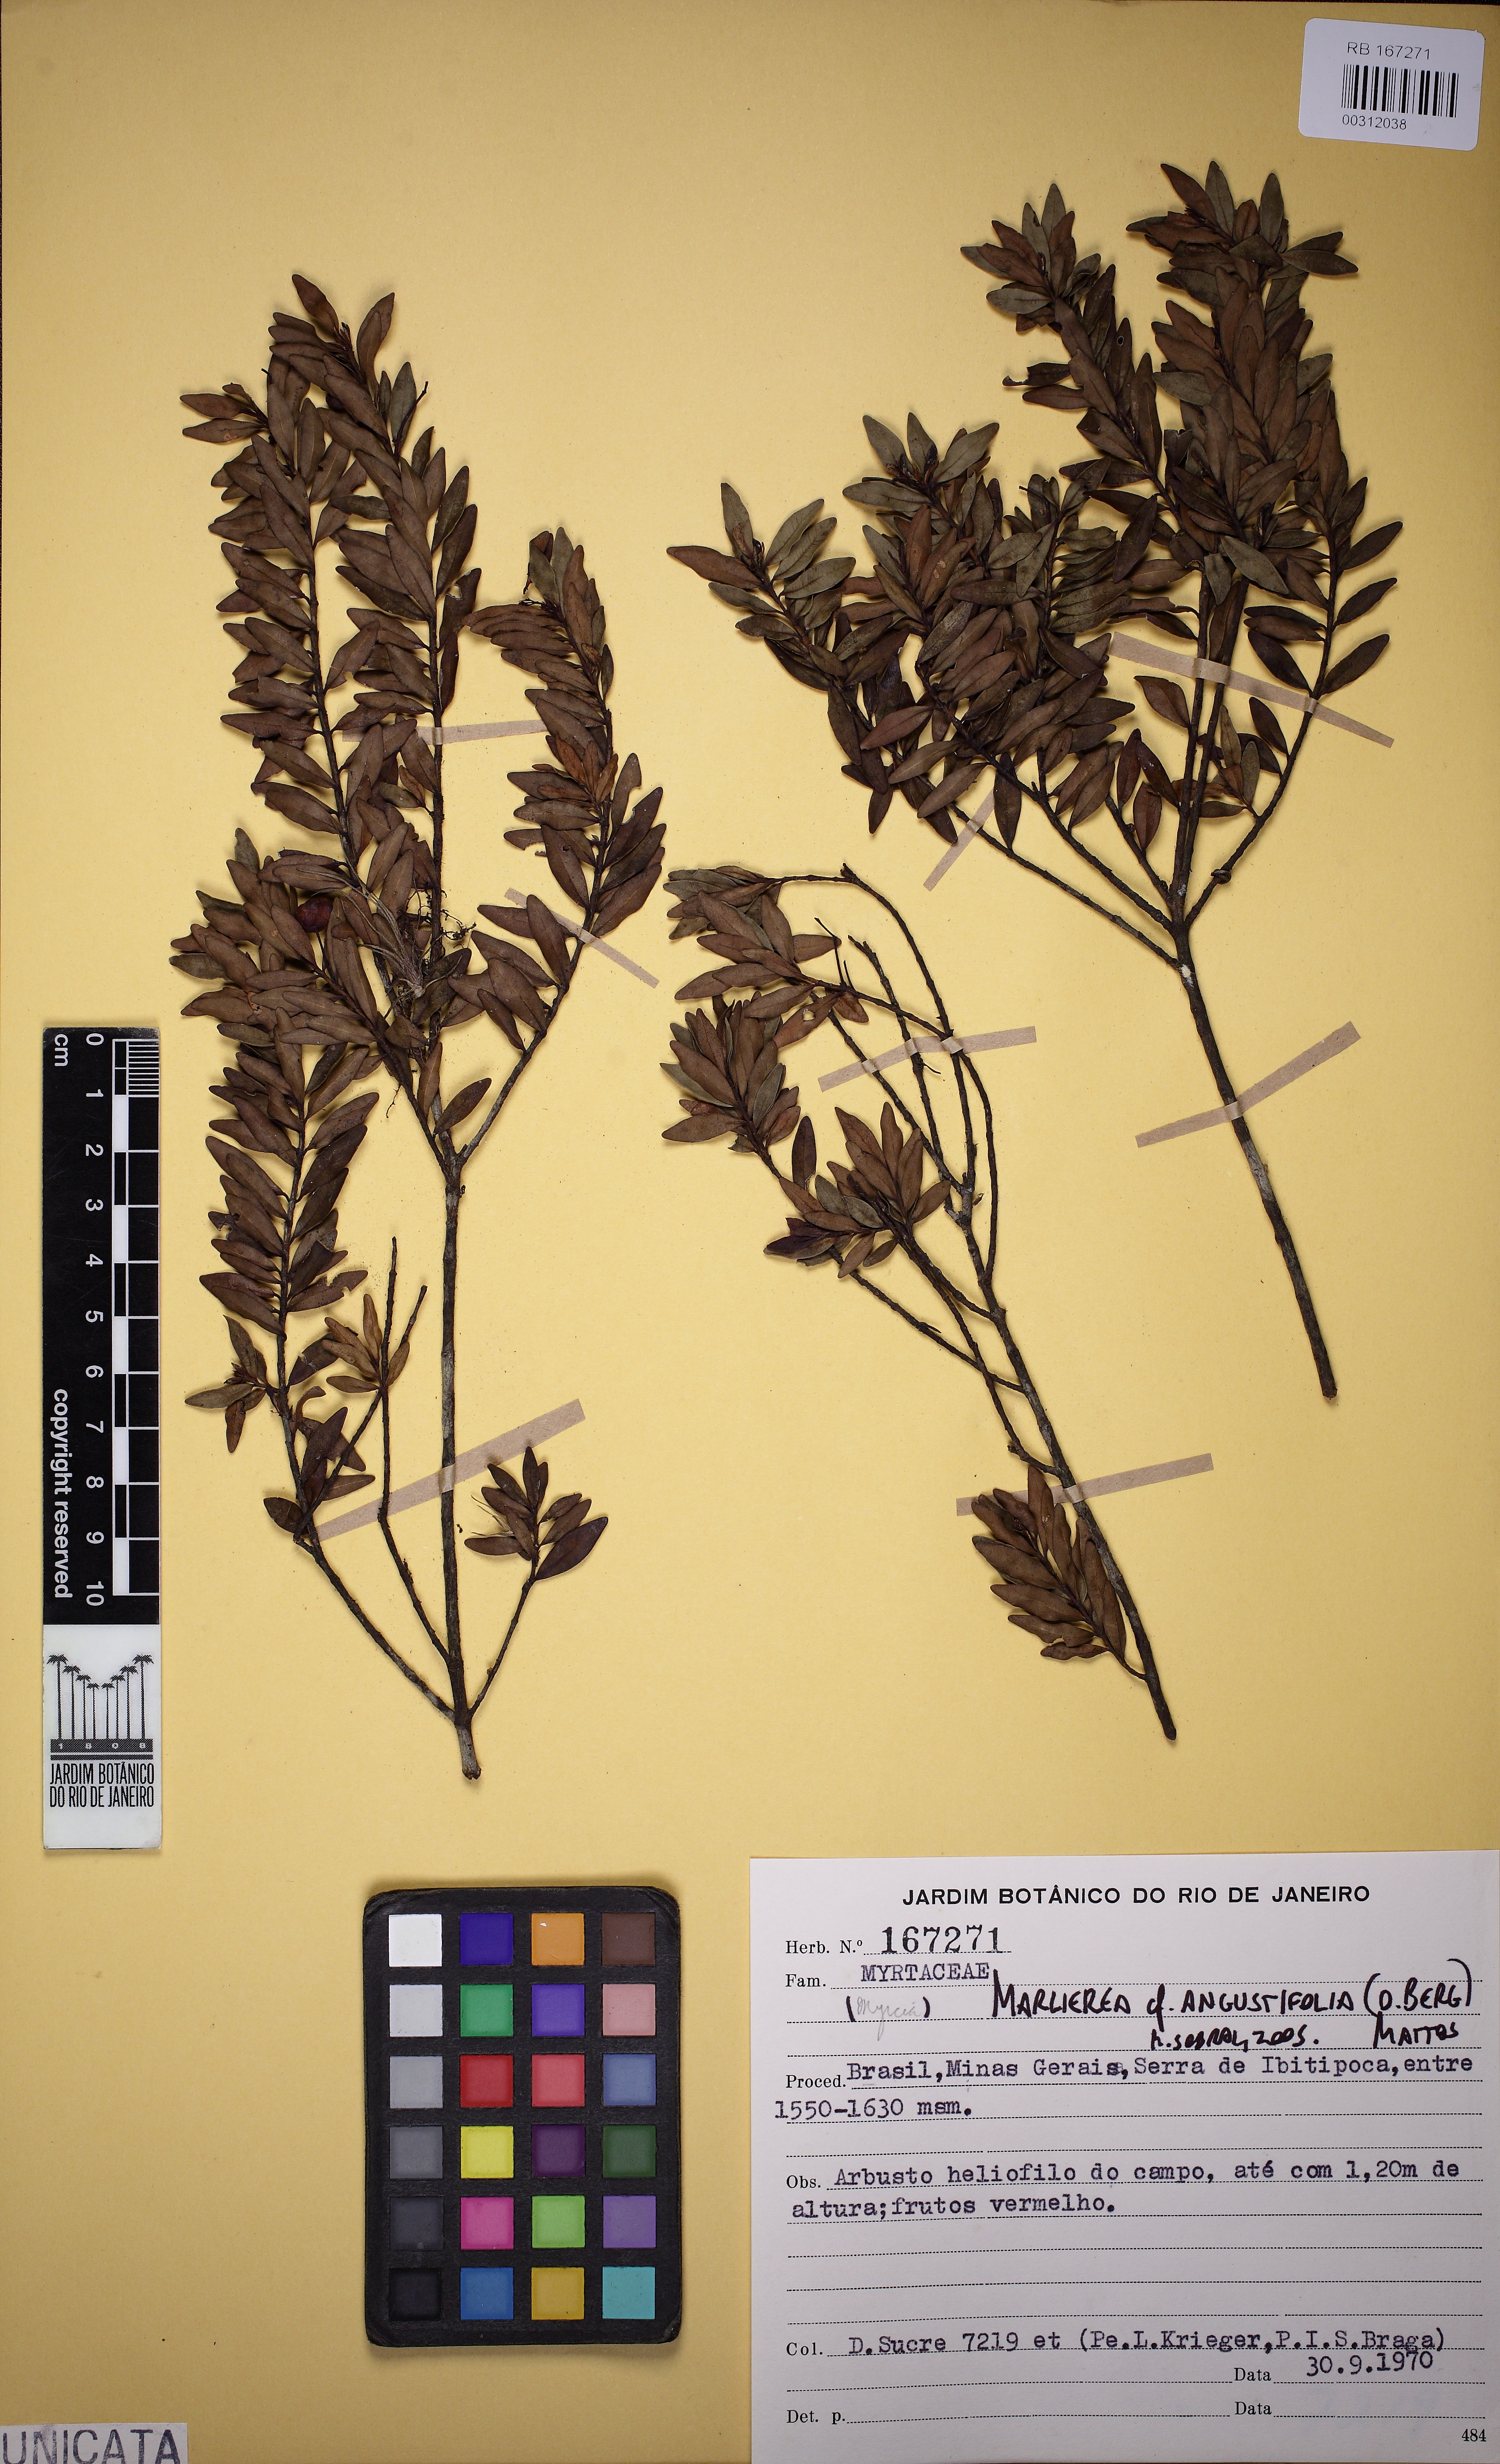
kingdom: Plantae
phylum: Tracheophyta
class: Magnoliopsida
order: Myrtales
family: Myrtaceae
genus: Myrcia
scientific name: Myrcia lenheirensis
